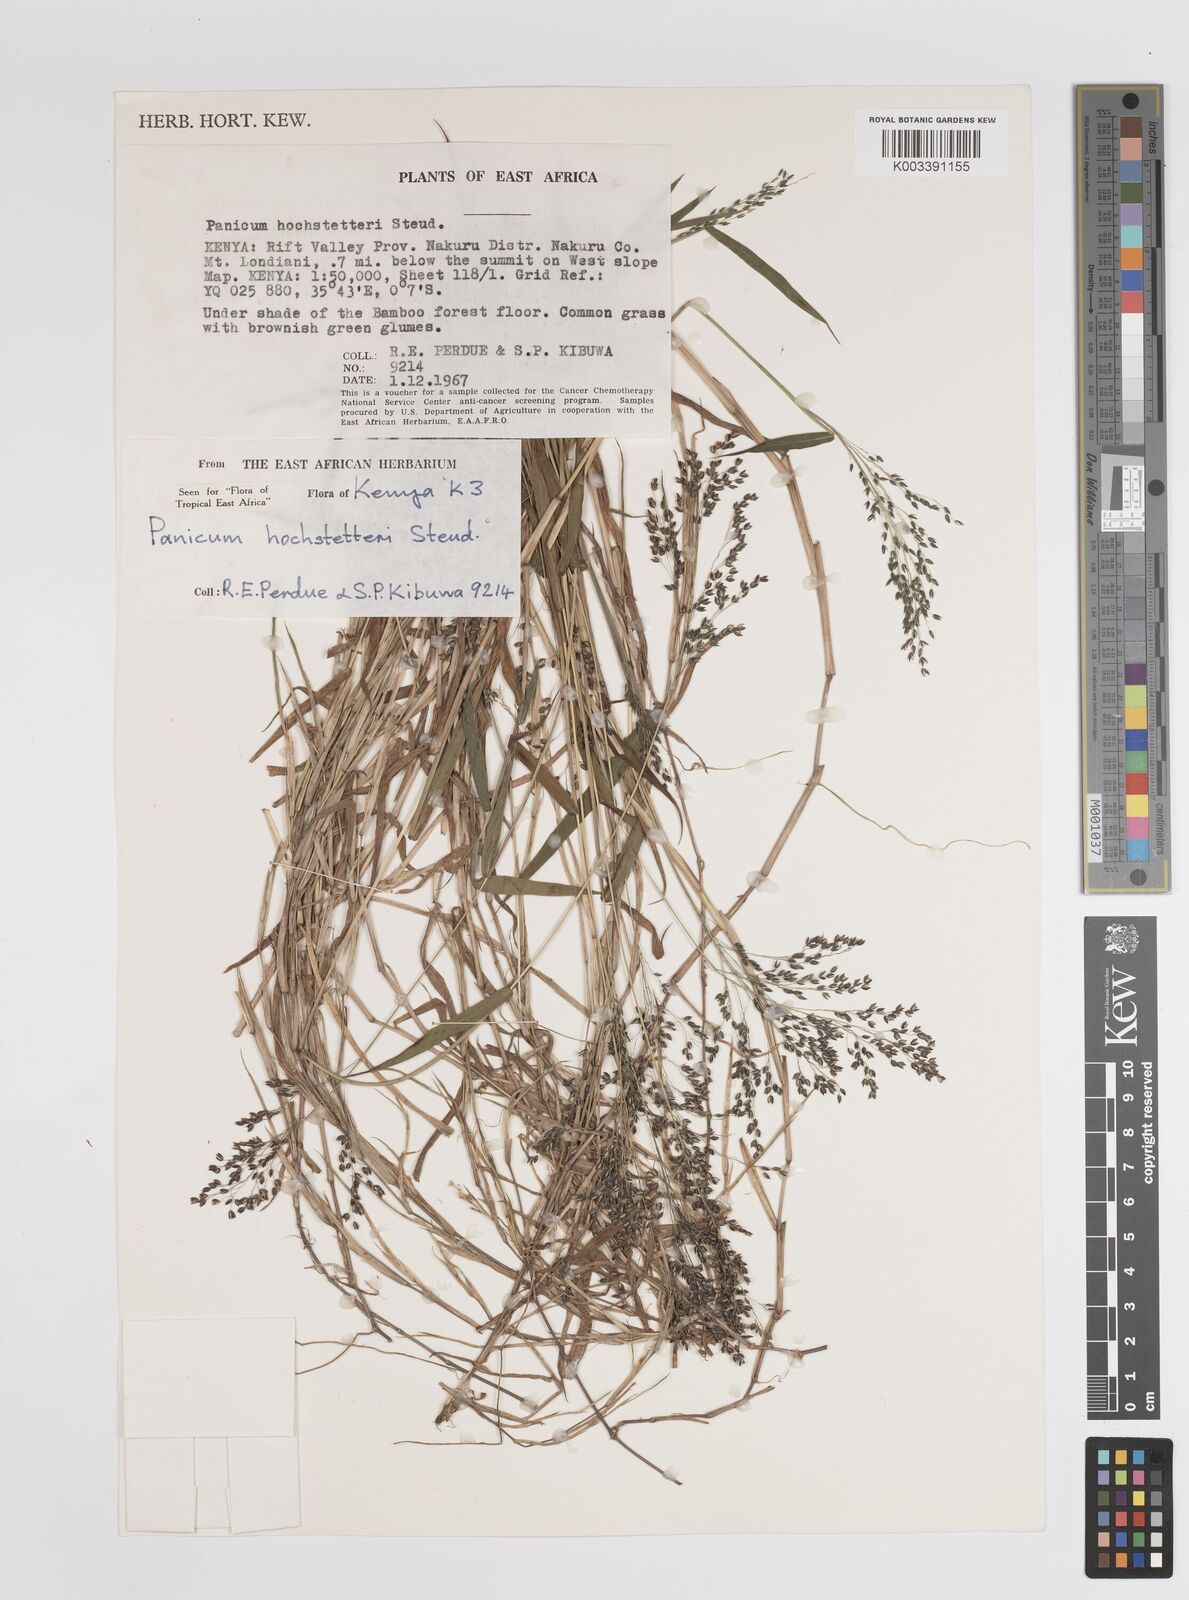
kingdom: Plantae
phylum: Tracheophyta
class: Liliopsida
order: Poales
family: Poaceae
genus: Panicum
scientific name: Panicum hochstetteri
